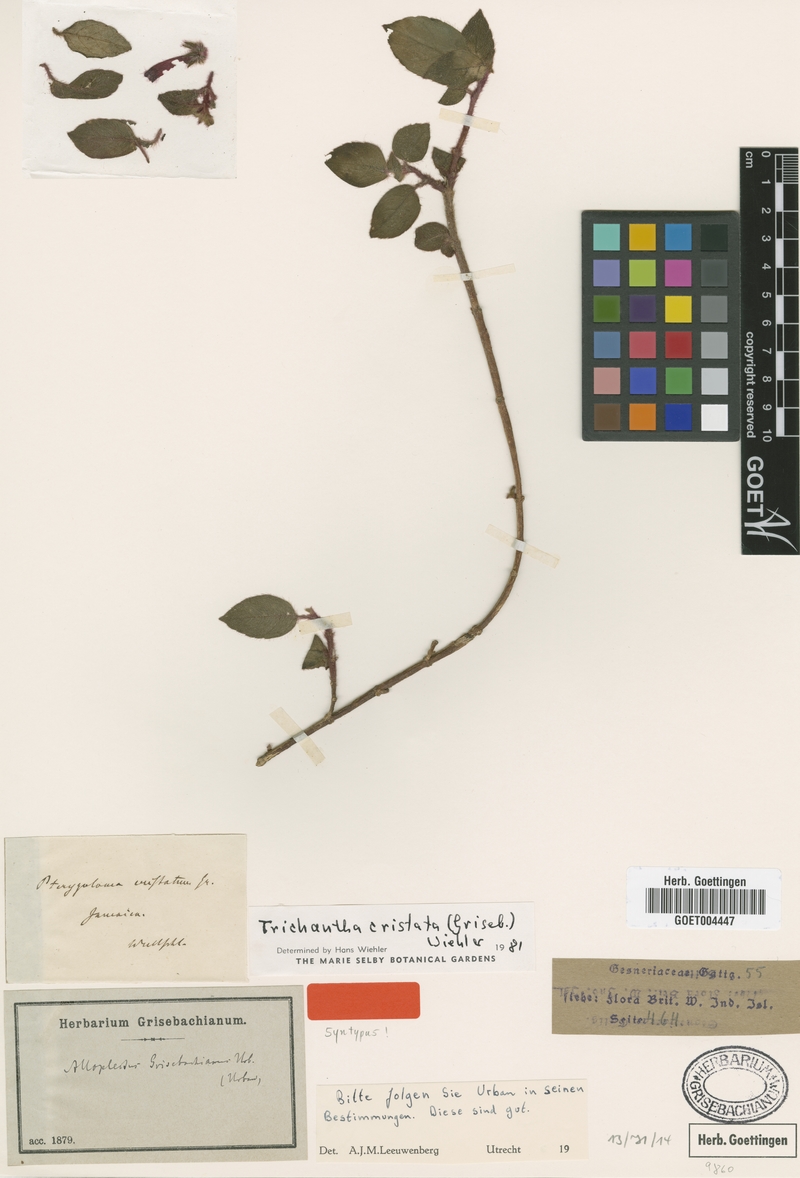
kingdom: Plantae
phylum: Tracheophyta
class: Magnoliopsida
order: Lamiales
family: Gesneriaceae
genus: Columnea
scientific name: Columnea grisebachiana
